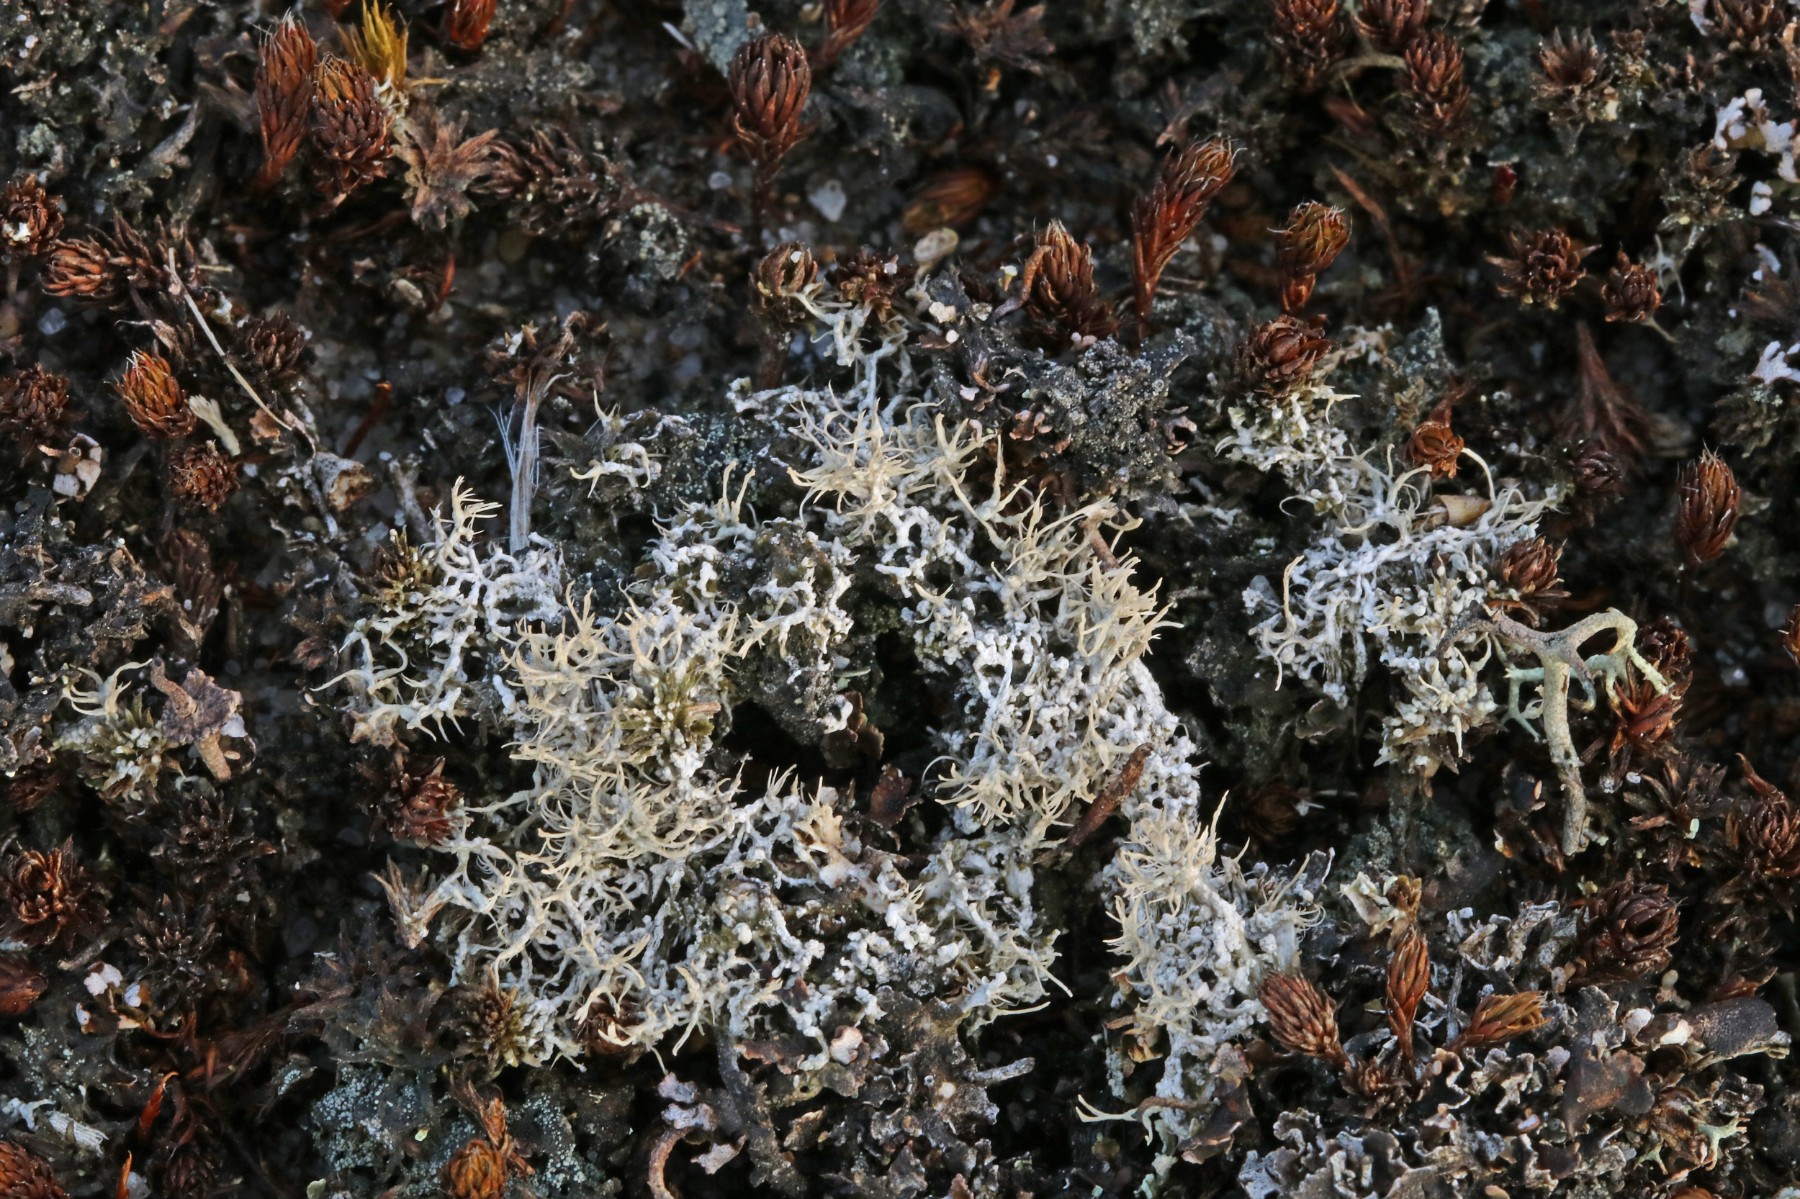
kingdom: Fungi
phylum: Ascomycota
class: Lecanoromycetes
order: Pertusariales
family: Ochrolechiaceae
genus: Ochrolechia
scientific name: Ochrolechia frigida
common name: fjeld-blegskivelav
